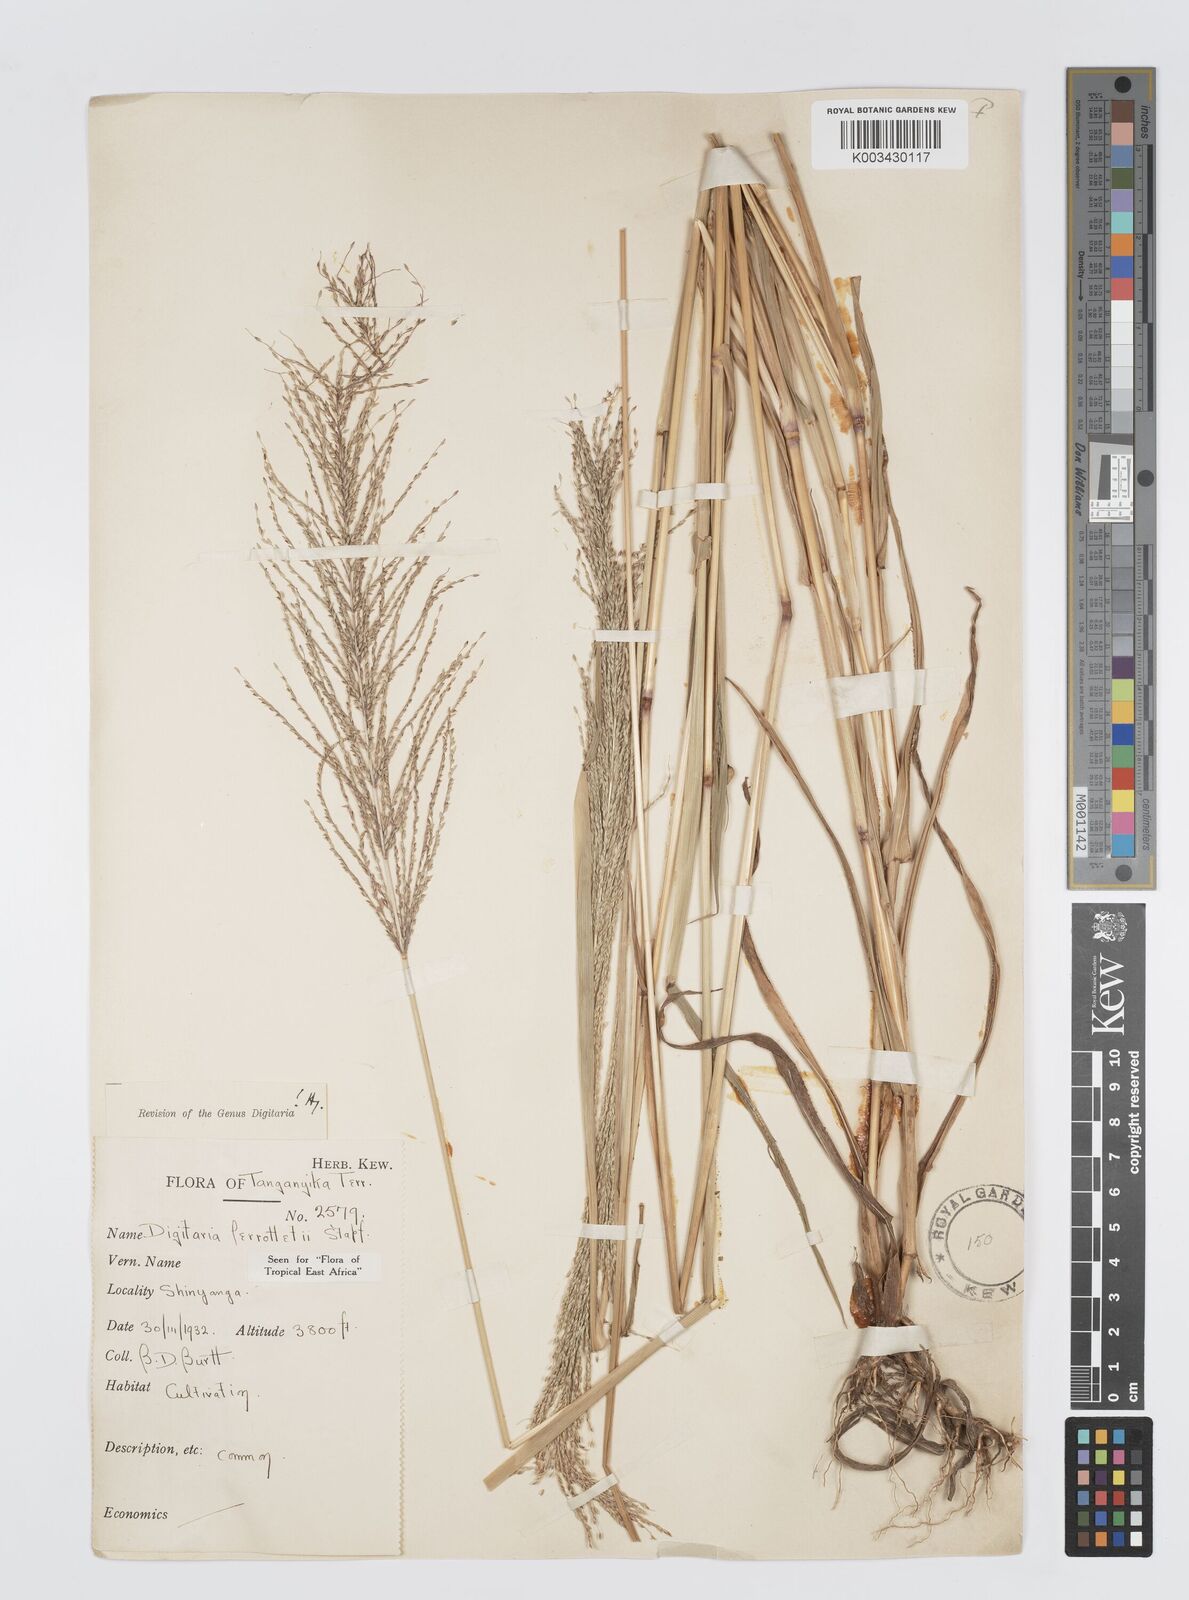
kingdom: Plantae
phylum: Tracheophyta
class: Liliopsida
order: Poales
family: Poaceae
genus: Digitaria
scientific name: Digitaria perrottetii
